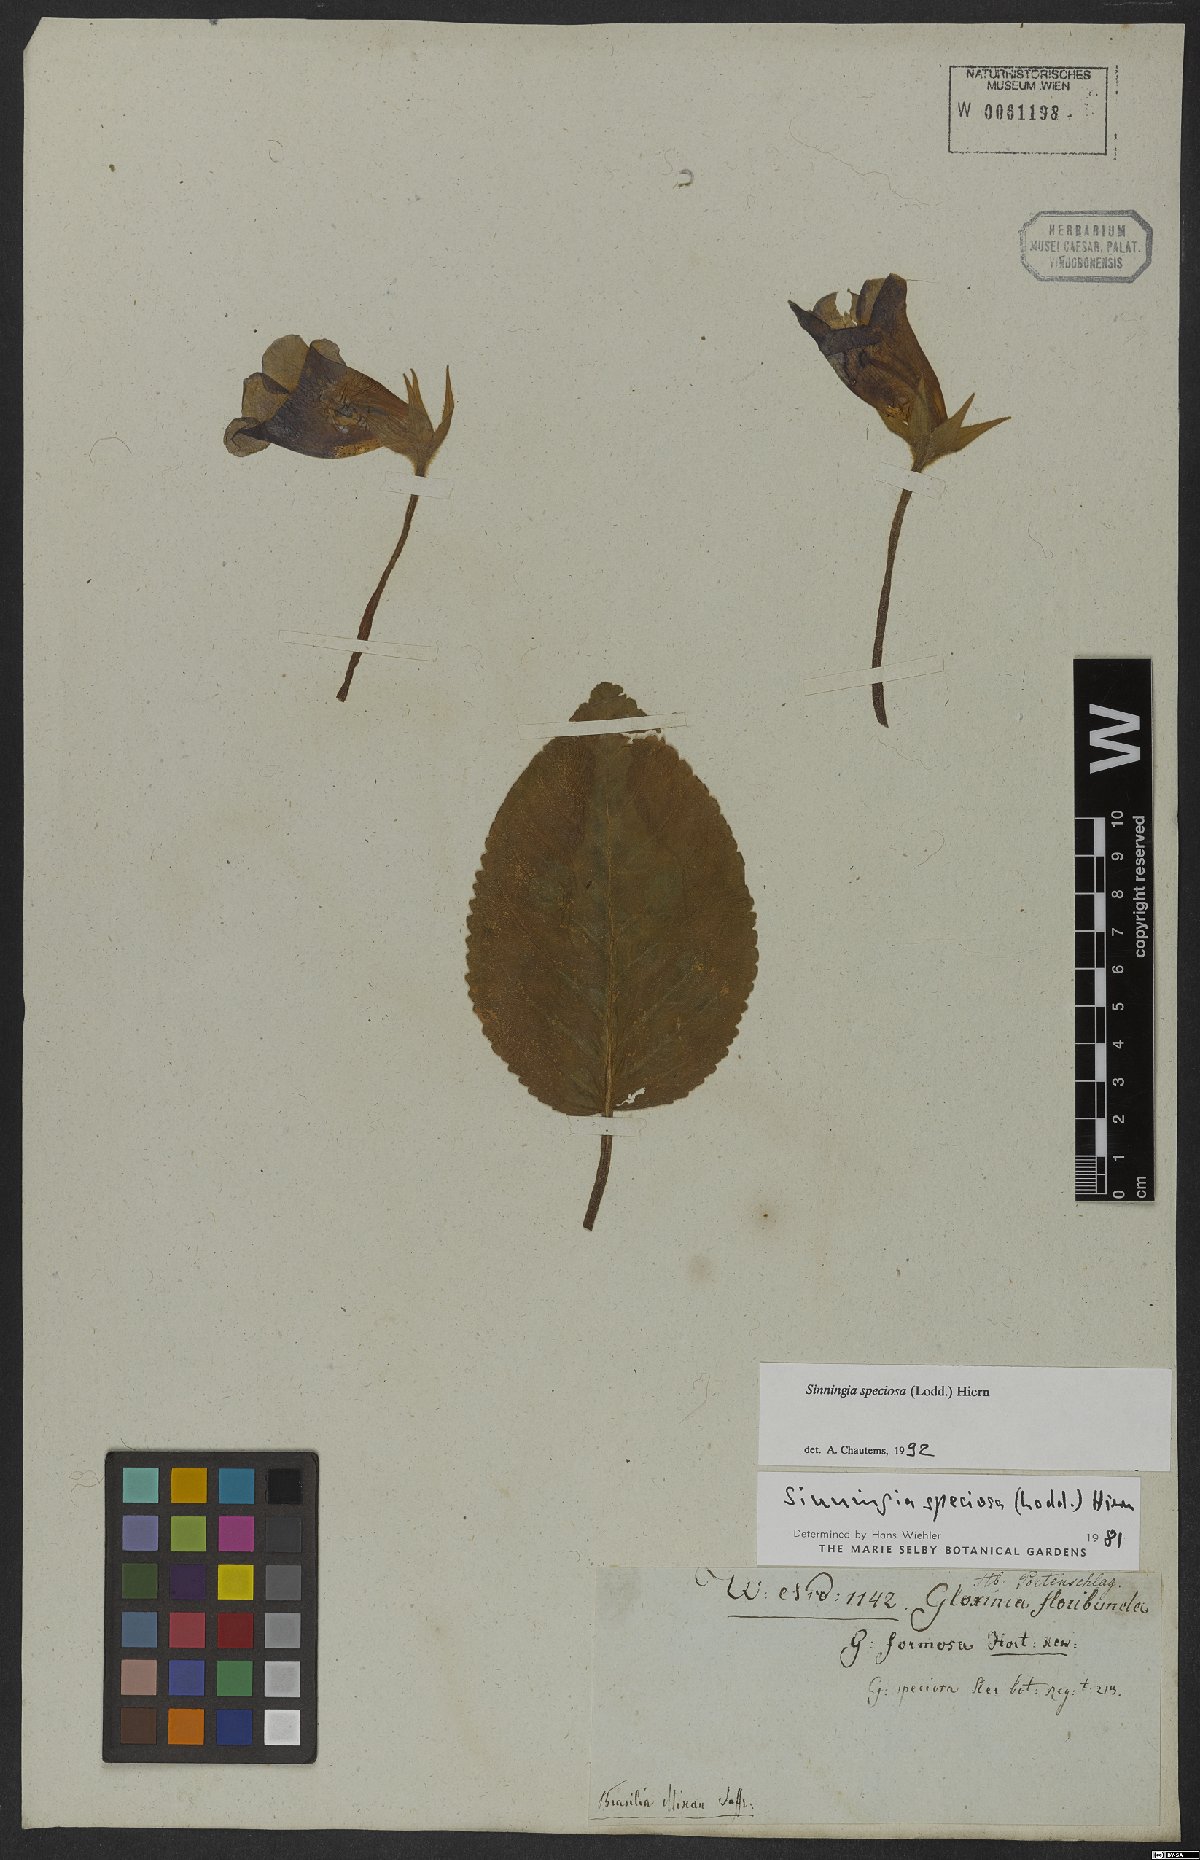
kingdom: Plantae
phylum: Tracheophyta
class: Magnoliopsida
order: Lamiales
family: Gesneriaceae
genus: Sinningia
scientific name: Sinningia speciosa
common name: Brazilian gloxinia
